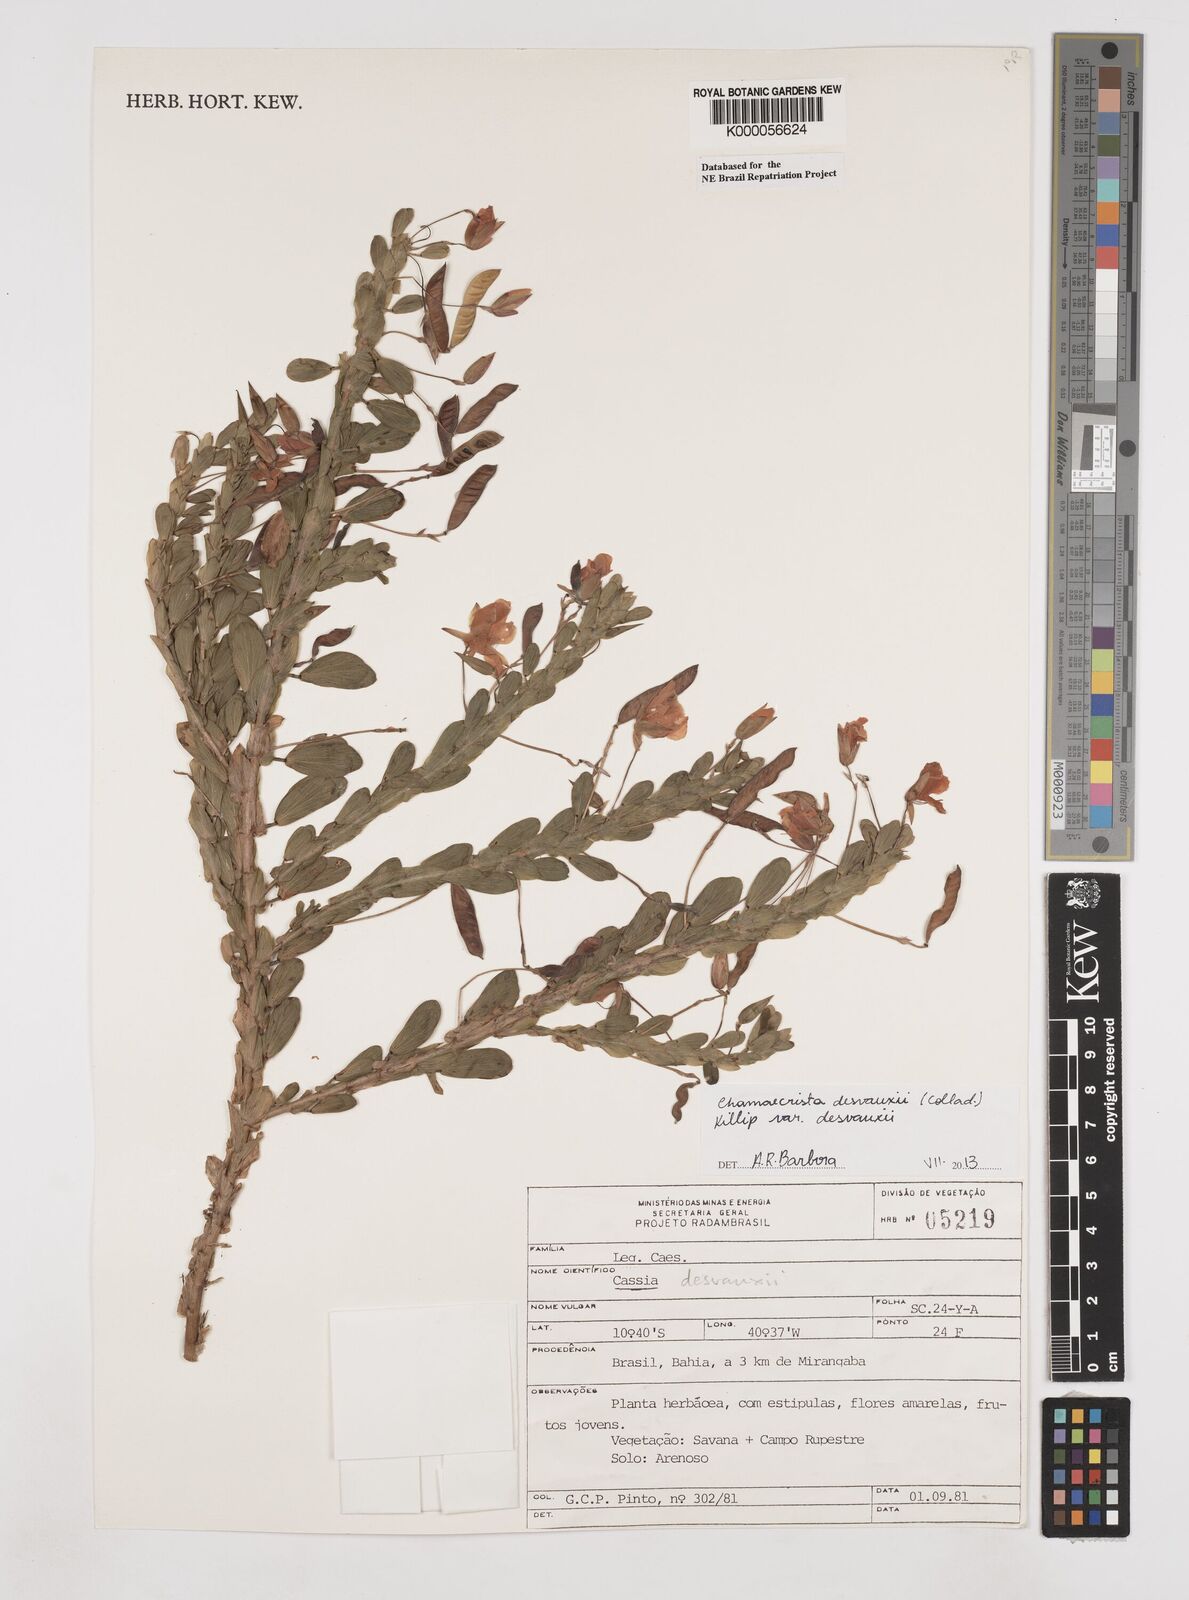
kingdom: Plantae
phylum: Tracheophyta
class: Magnoliopsida
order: Fabales
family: Fabaceae
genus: Chamaecrista
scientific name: Chamaecrista desvauxii
